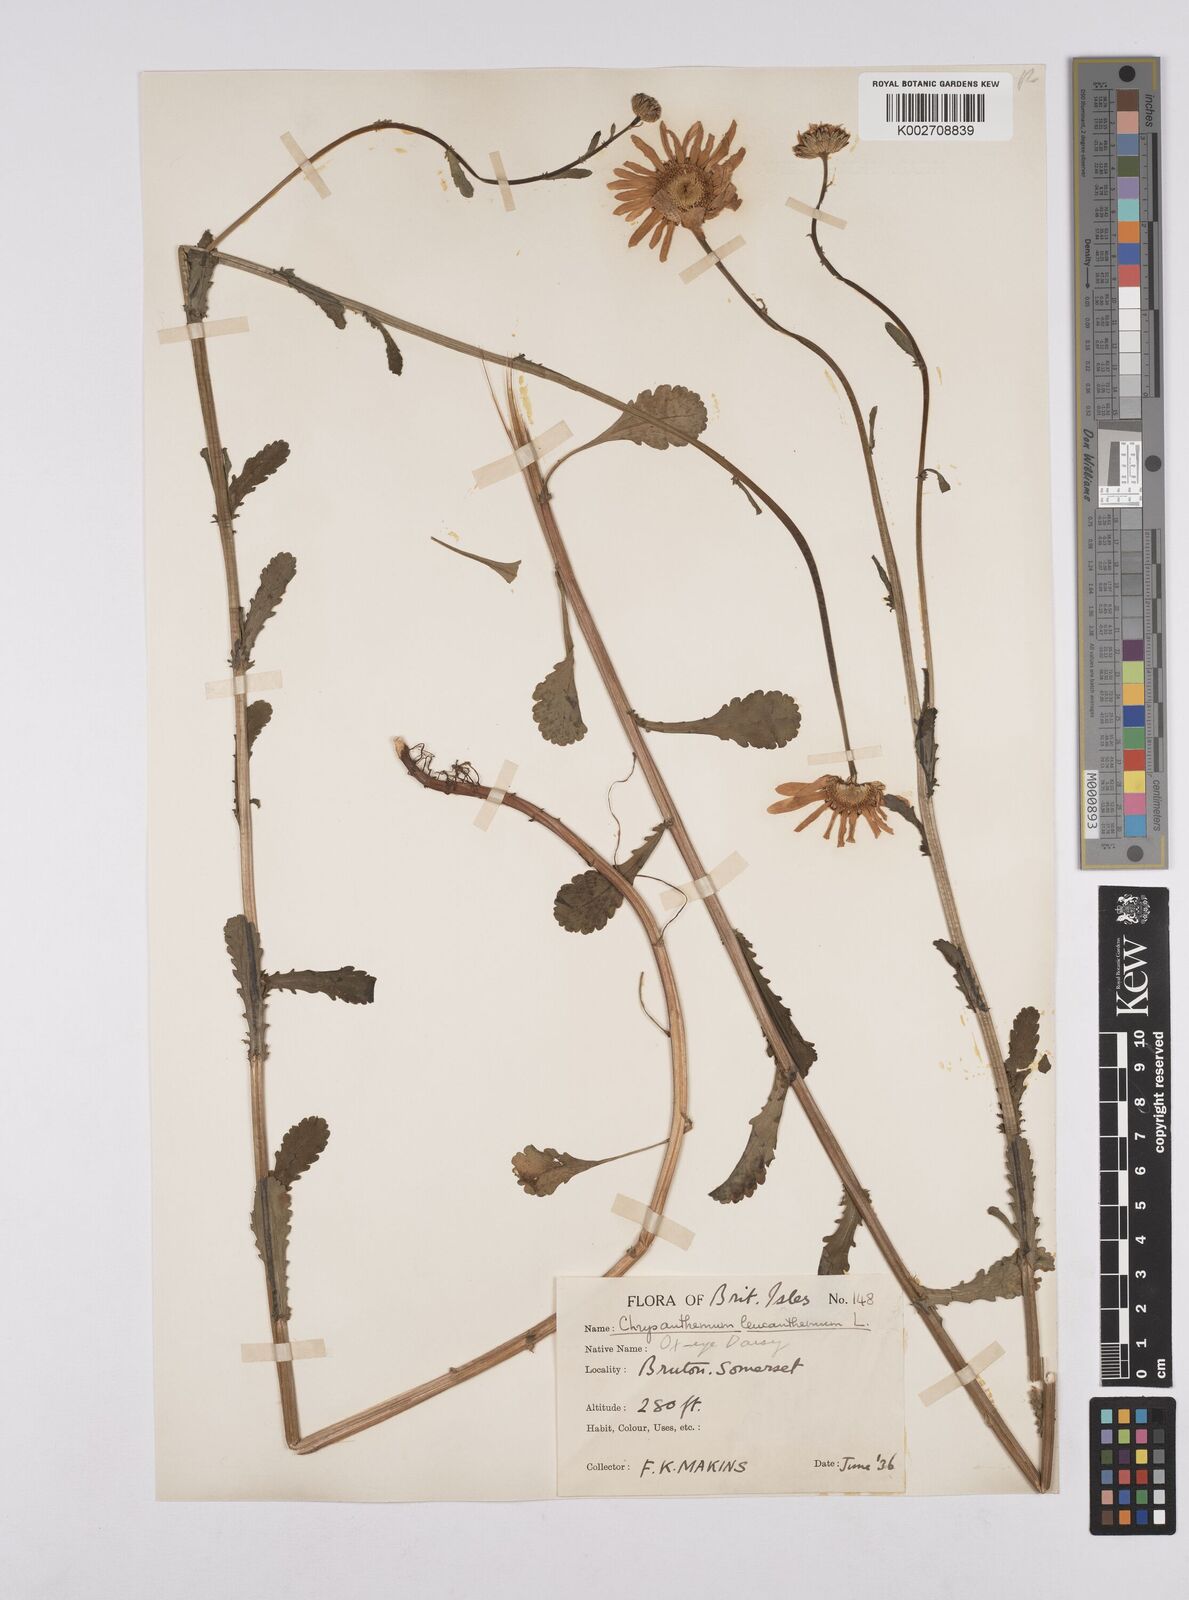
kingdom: Plantae
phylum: Tracheophyta
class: Magnoliopsida
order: Asterales
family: Asteraceae
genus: Leucanthemum
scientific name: Leucanthemum
